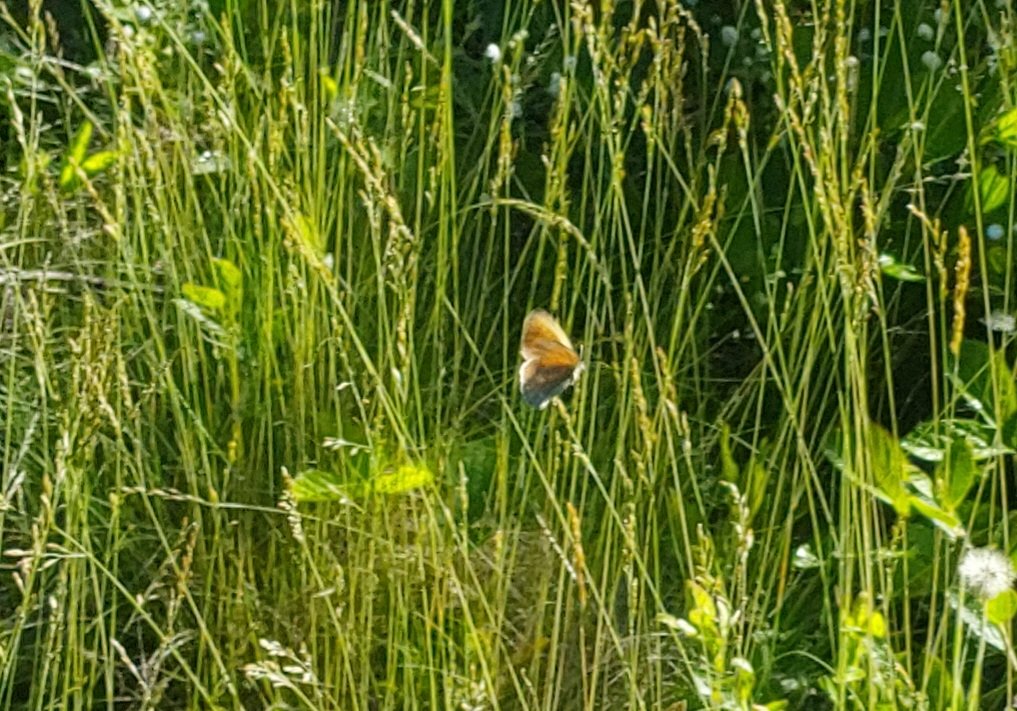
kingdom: Animalia
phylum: Arthropoda
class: Insecta
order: Lepidoptera
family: Nymphalidae
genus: Coenonympha
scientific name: Coenonympha tullia
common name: Large Heath
